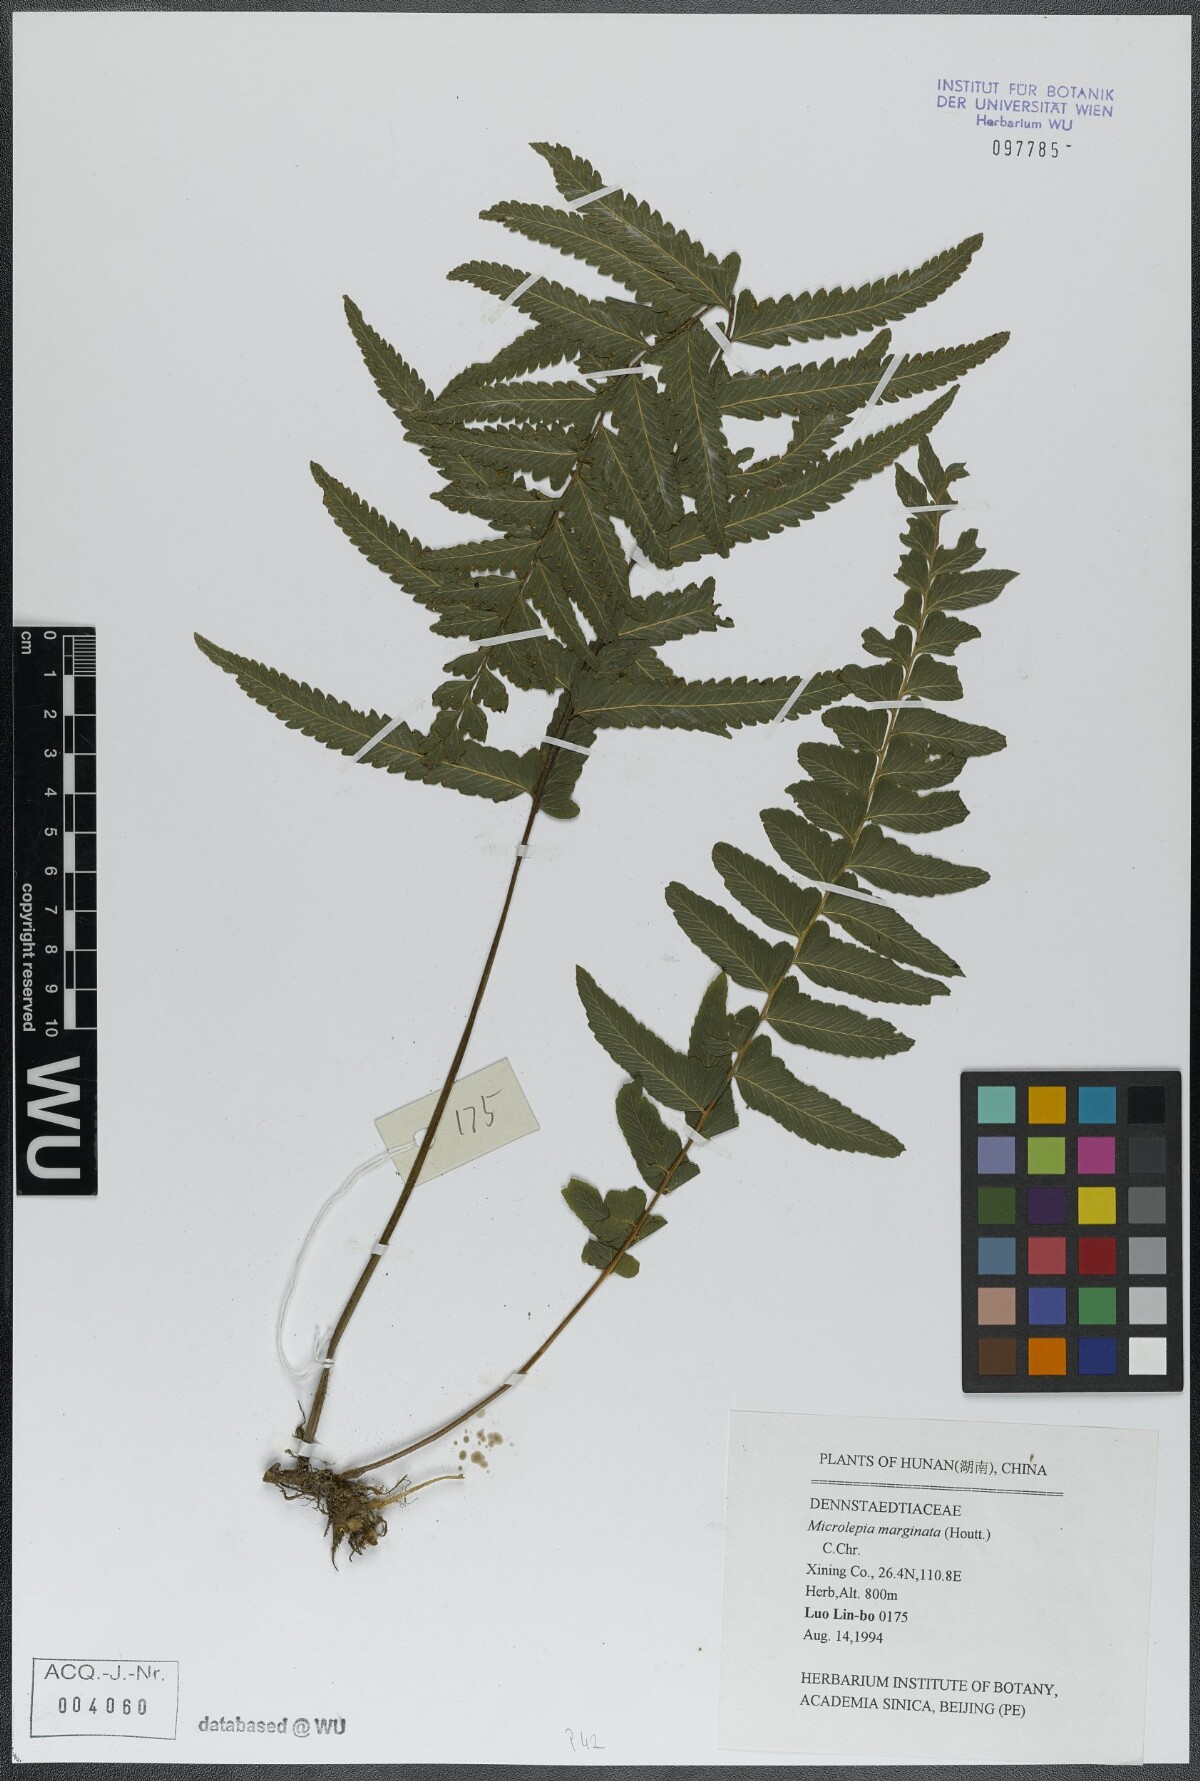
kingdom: Plantae
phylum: Tracheophyta
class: Polypodiopsida
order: Polypodiales
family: Dennstaedtiaceae
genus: Microlepia
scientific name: Microlepia marginata
